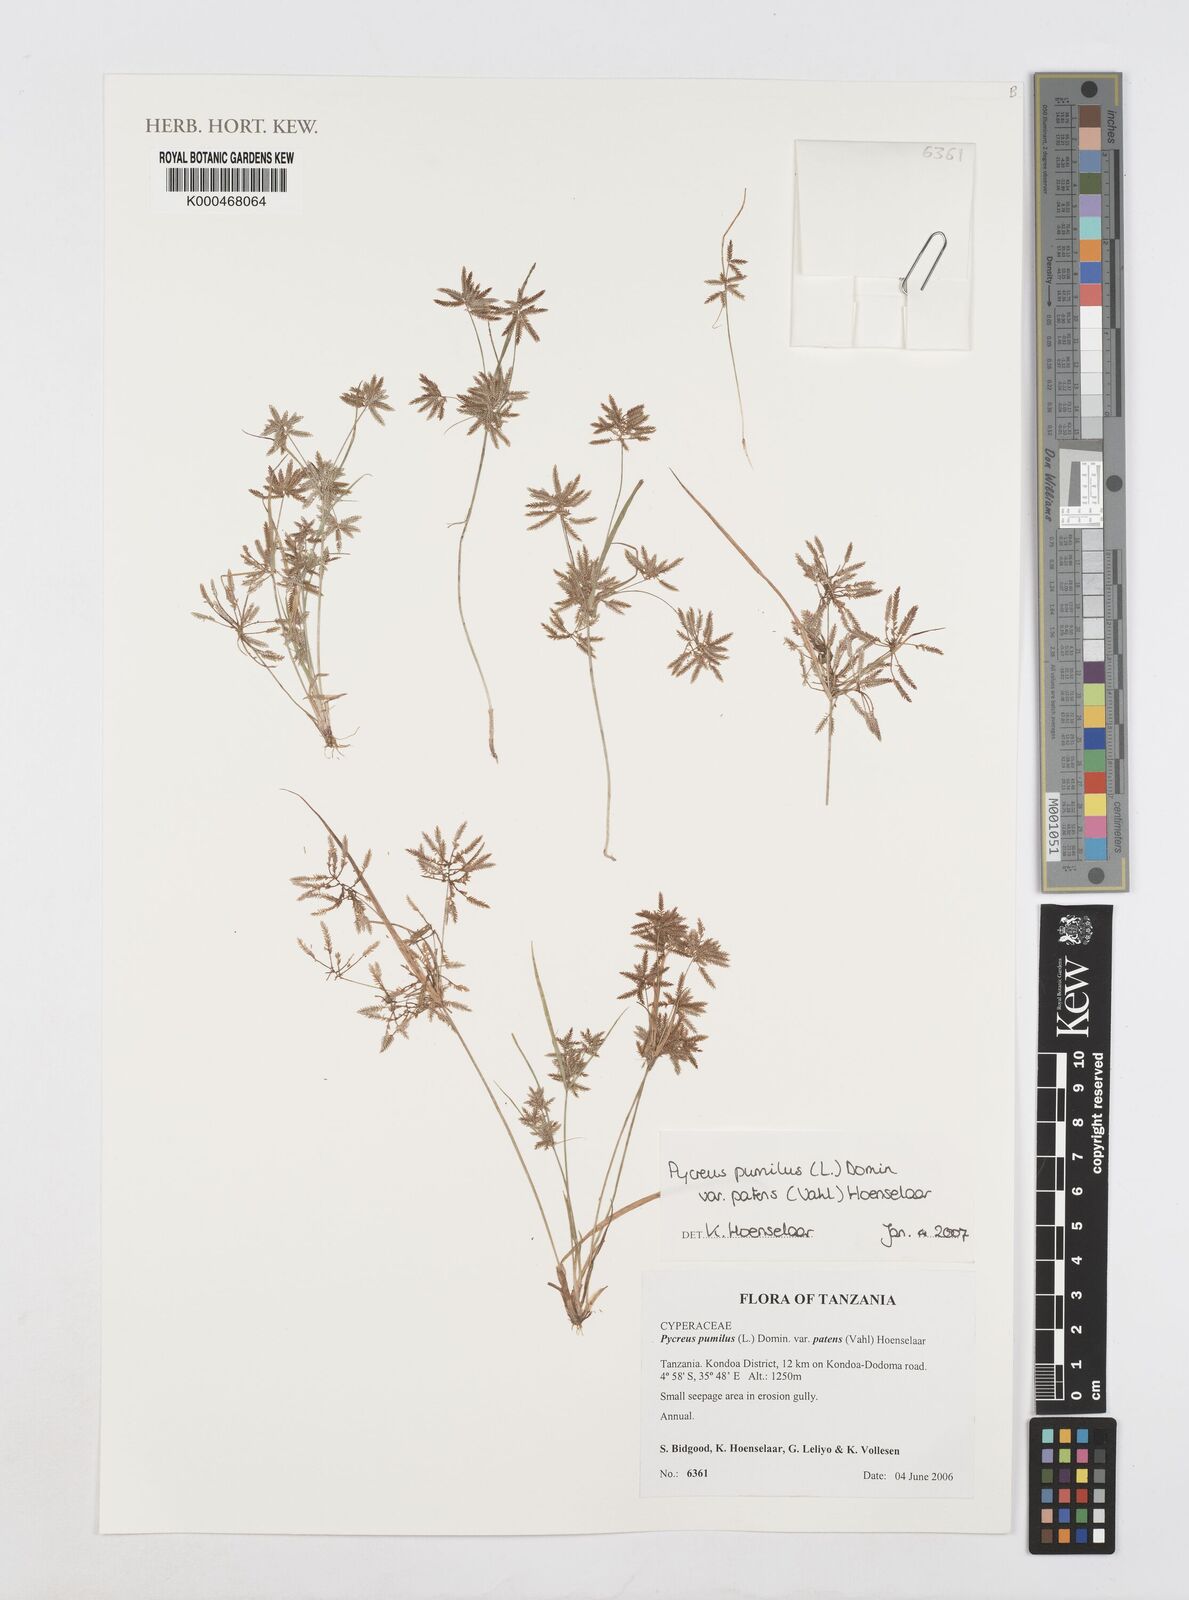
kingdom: Plantae
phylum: Tracheophyta
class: Liliopsida
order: Poales
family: Cyperaceae
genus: Cyperus
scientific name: Cyperus
